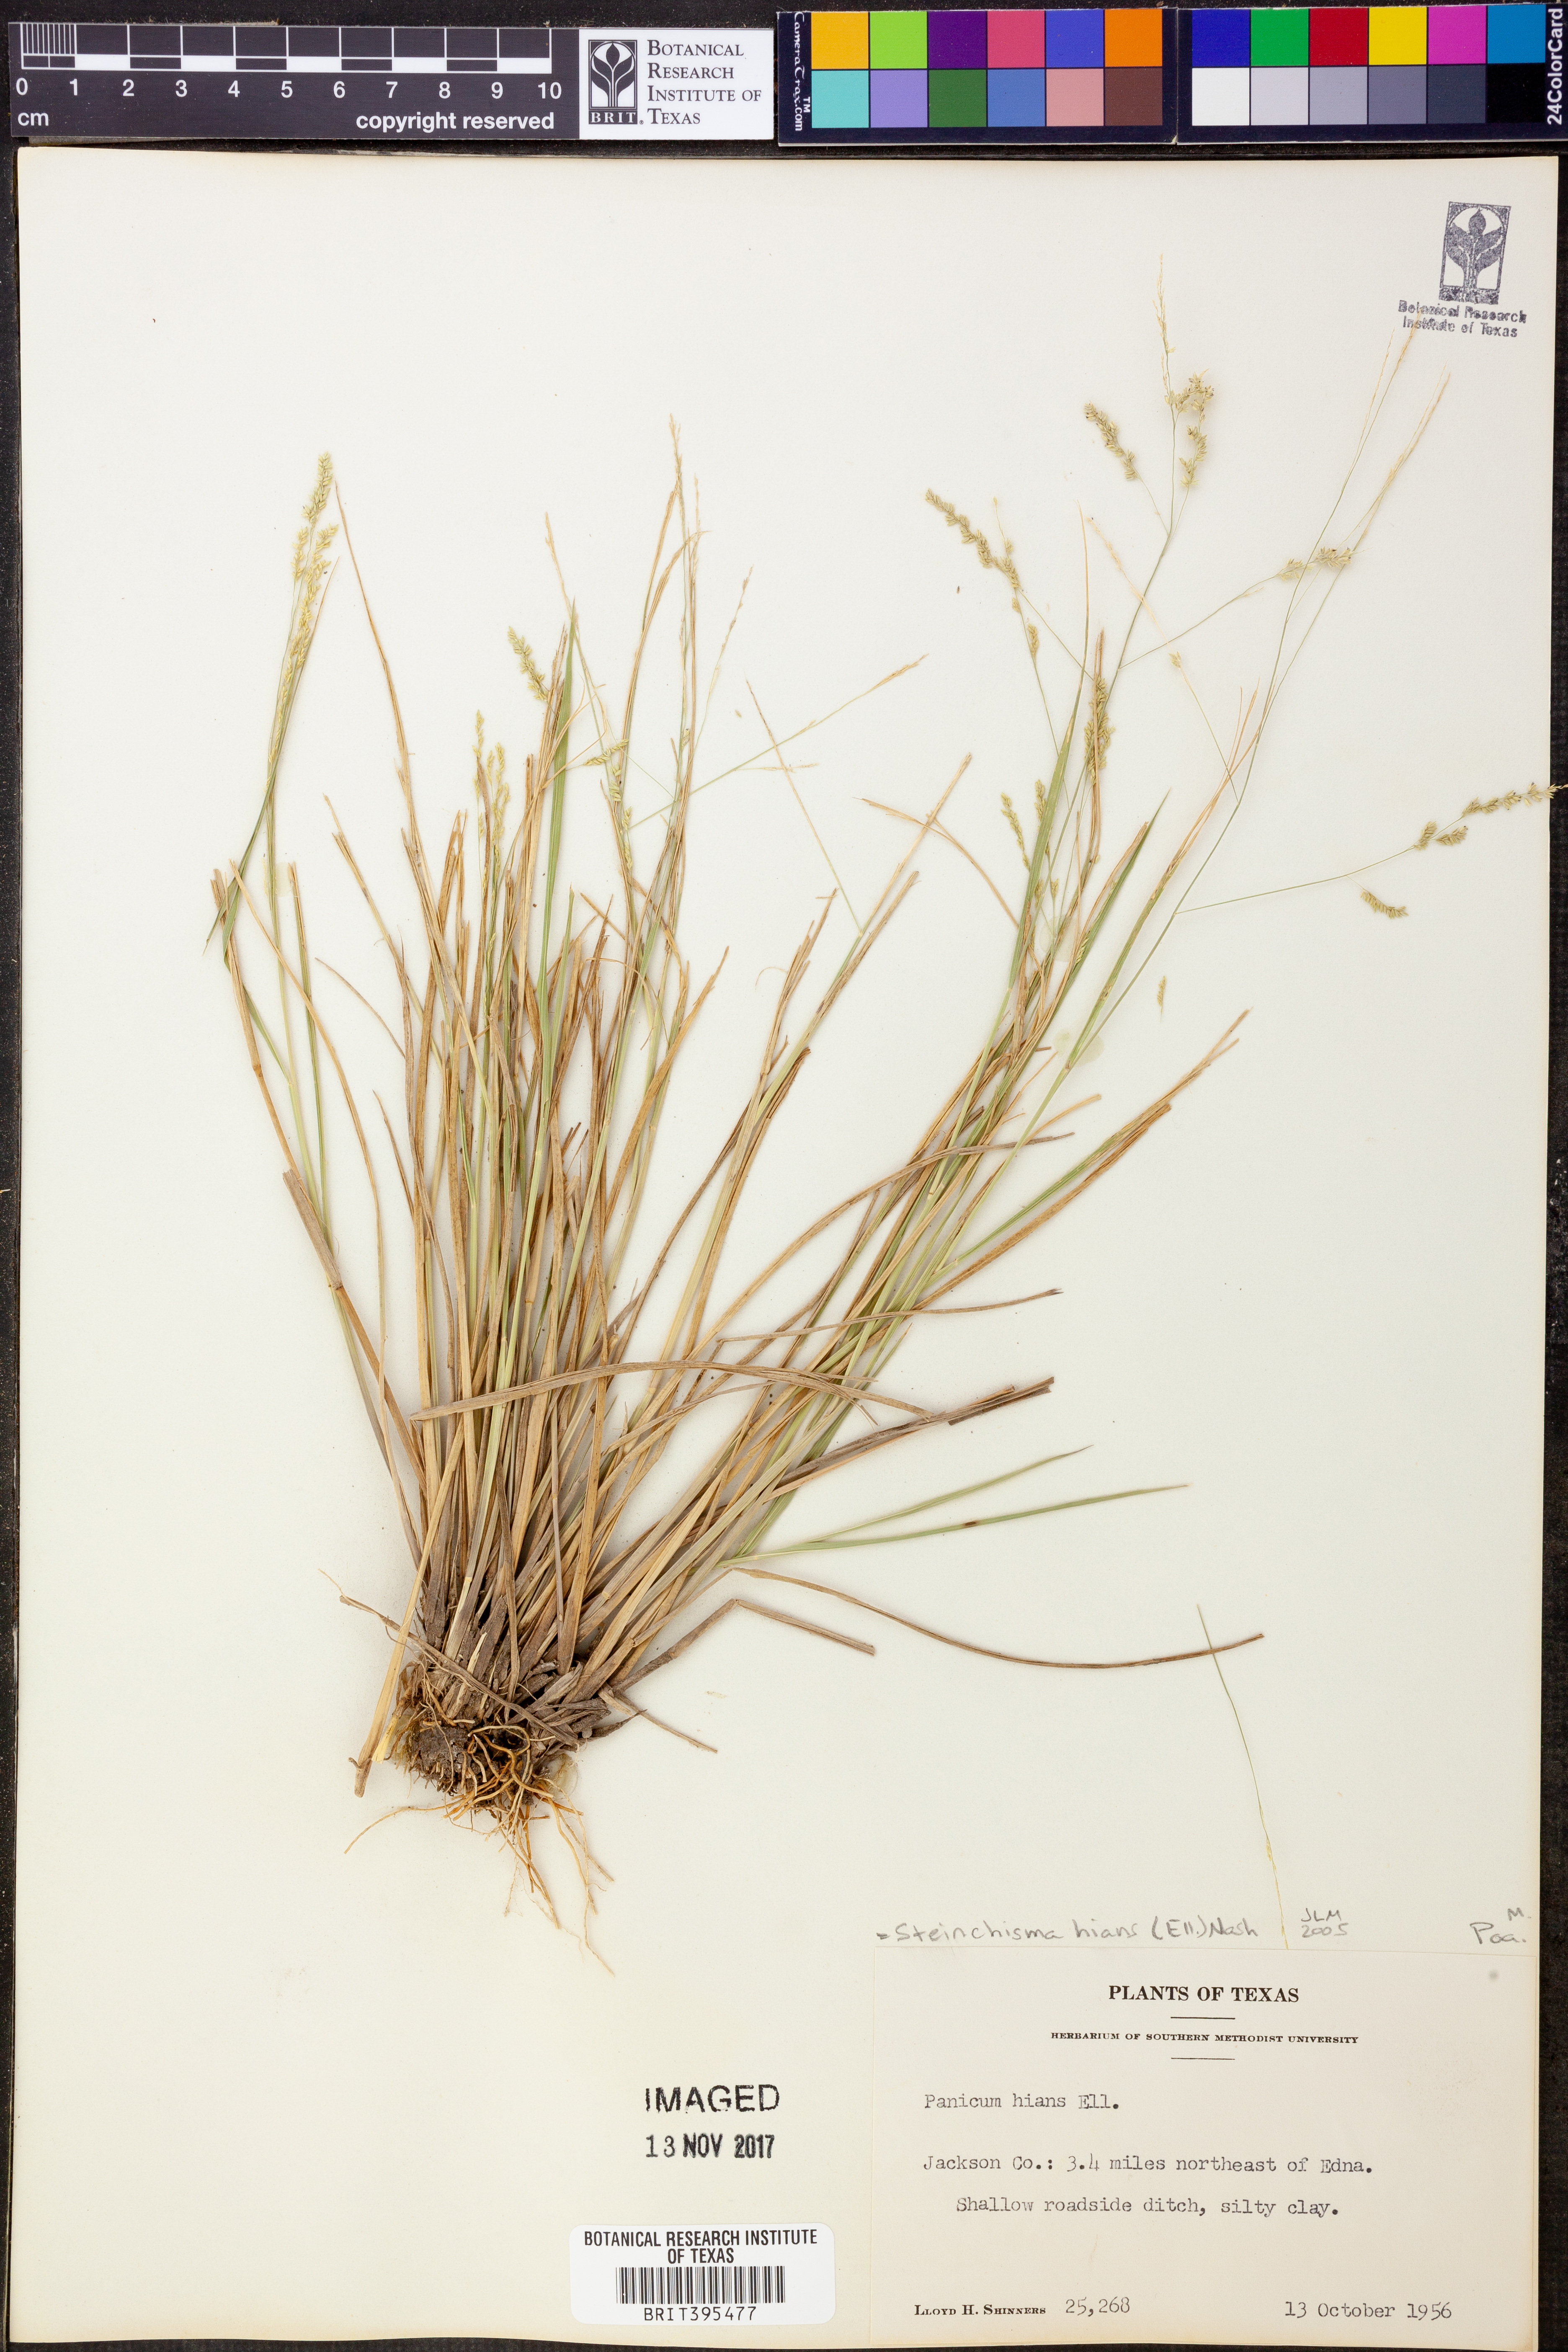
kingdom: Plantae
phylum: Tracheophyta
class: Liliopsida
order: Poales
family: Poaceae
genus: Steinchisma
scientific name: Steinchisma hians
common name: Gaping panic grass
